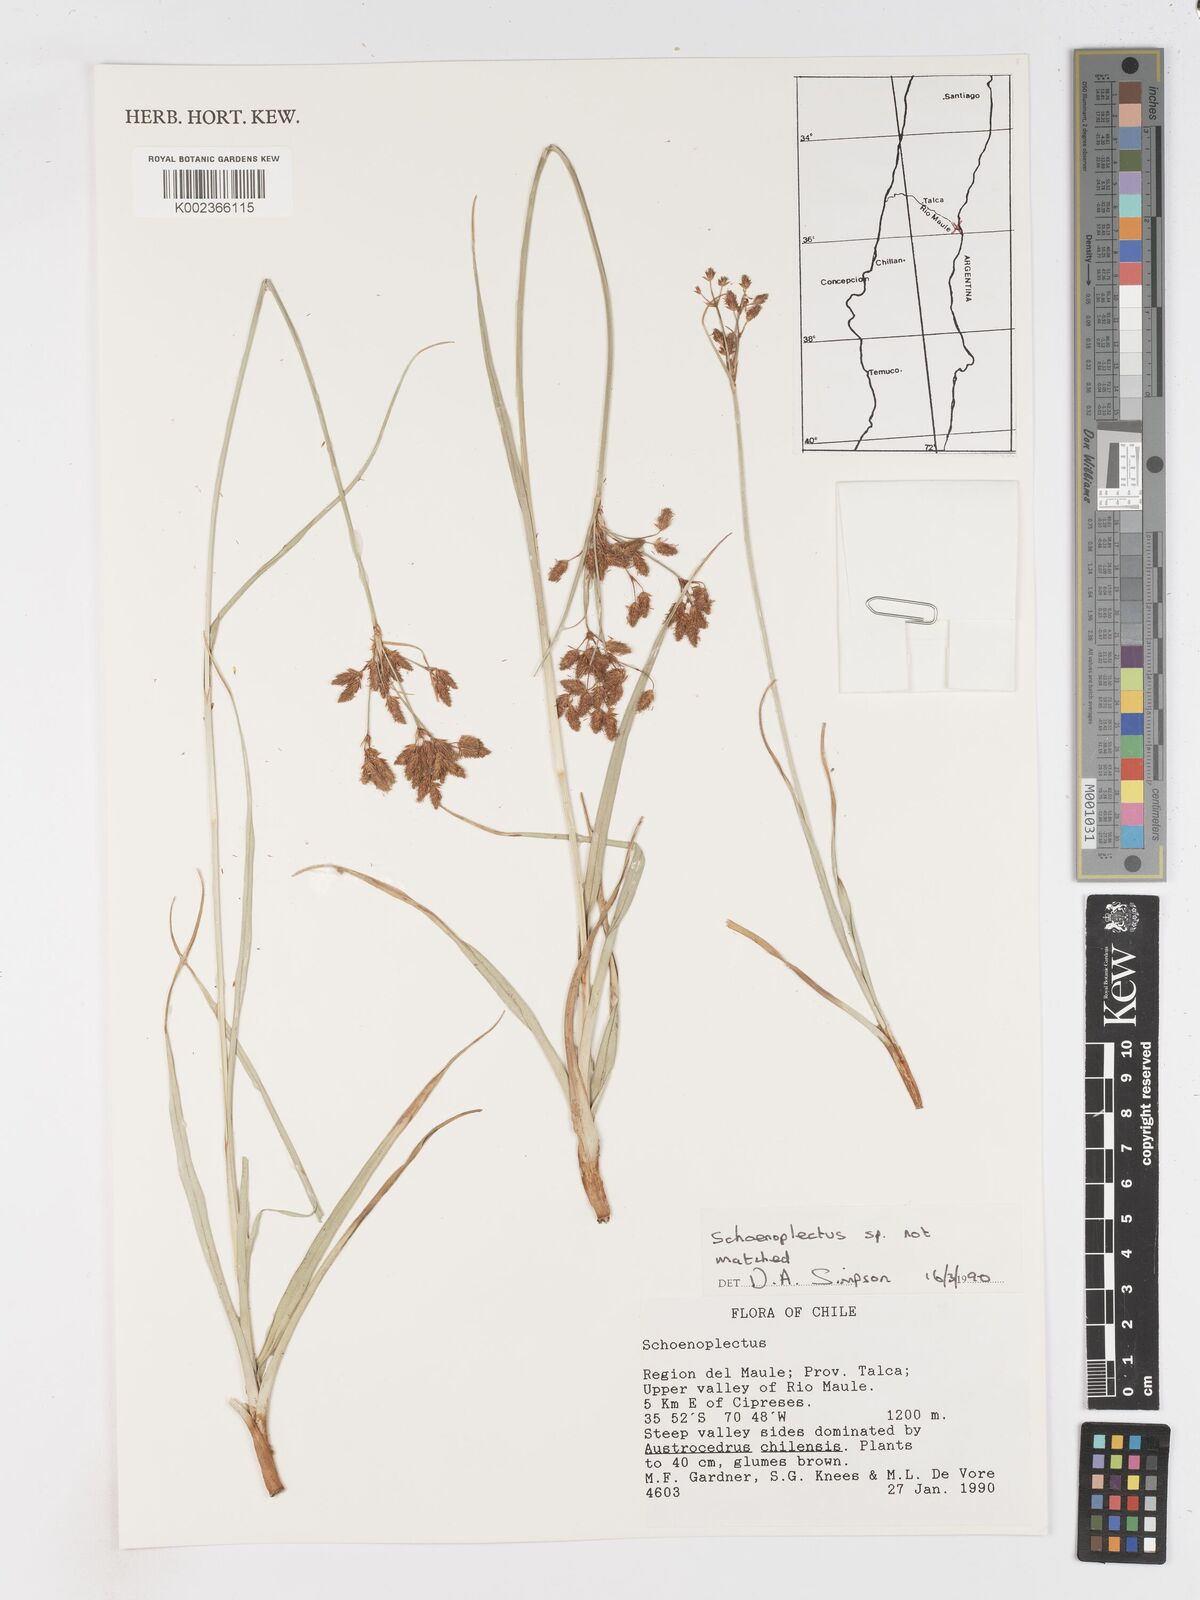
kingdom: Plantae
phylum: Tracheophyta
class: Liliopsida
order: Poales
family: Cyperaceae
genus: Schoenoplectus
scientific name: Schoenoplectus
